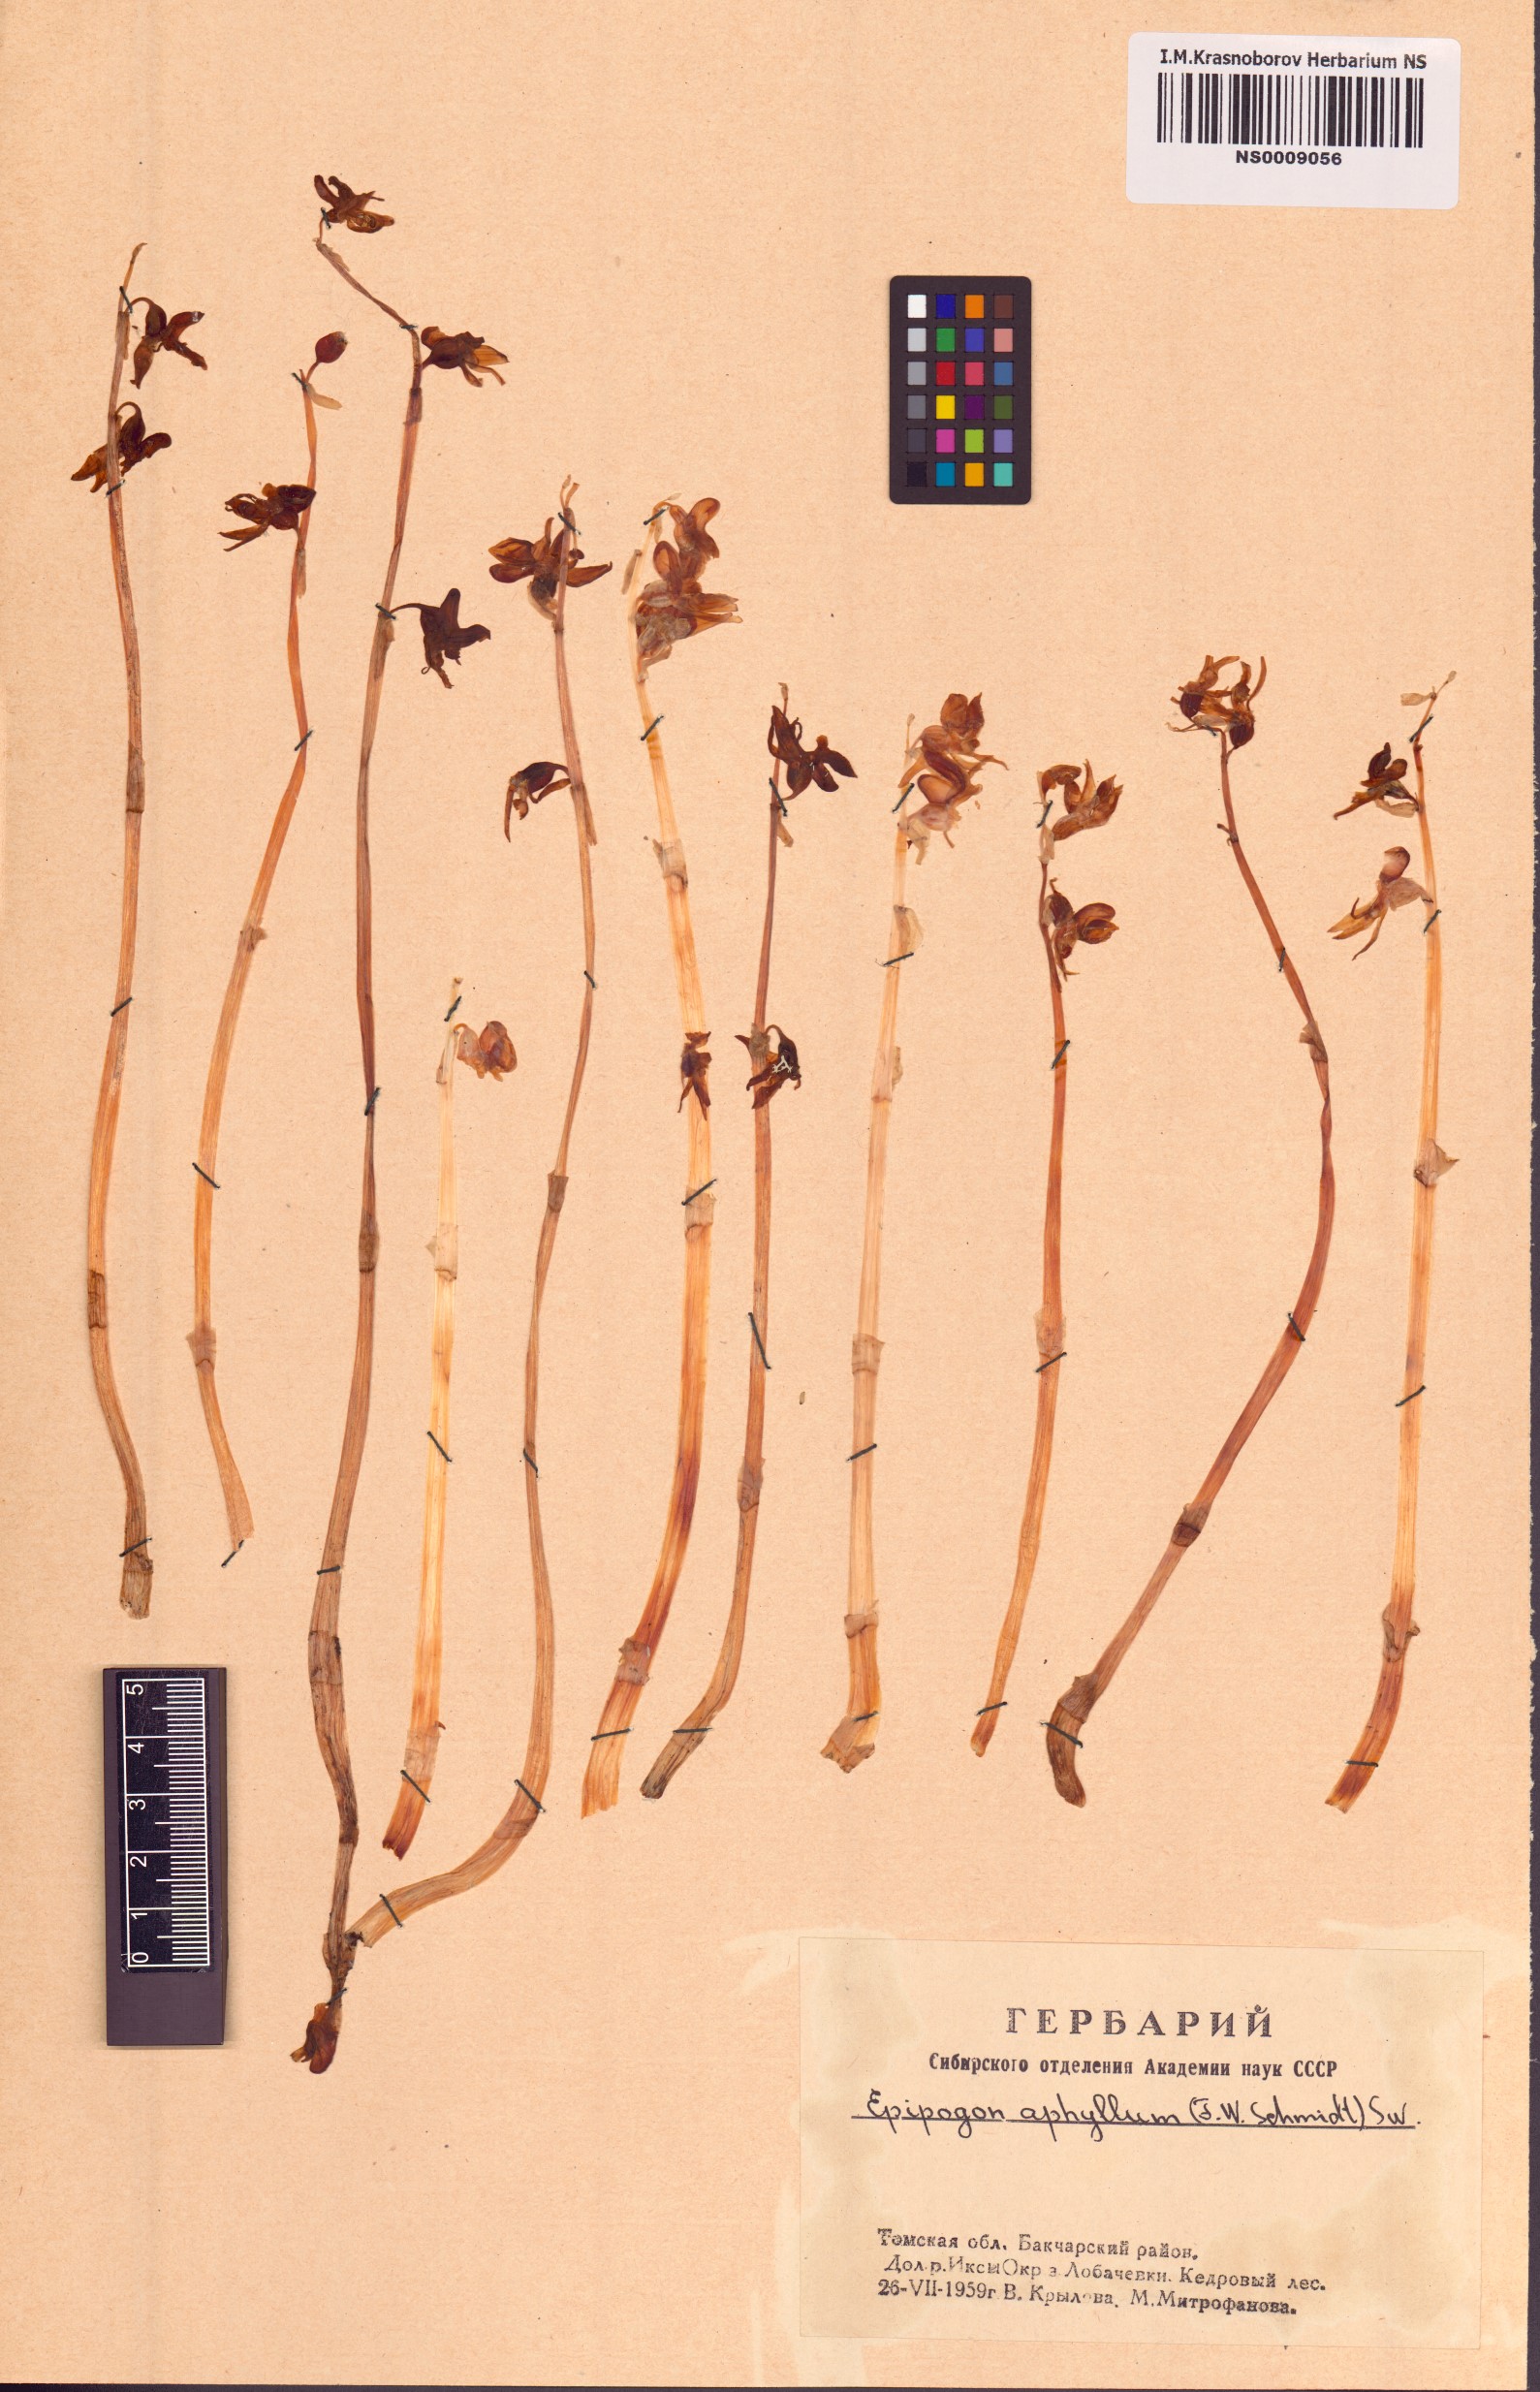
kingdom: Plantae
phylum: Tracheophyta
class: Liliopsida
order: Asparagales
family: Orchidaceae
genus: Epipogium
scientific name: Epipogium aphyllum
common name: Ghost orchid
